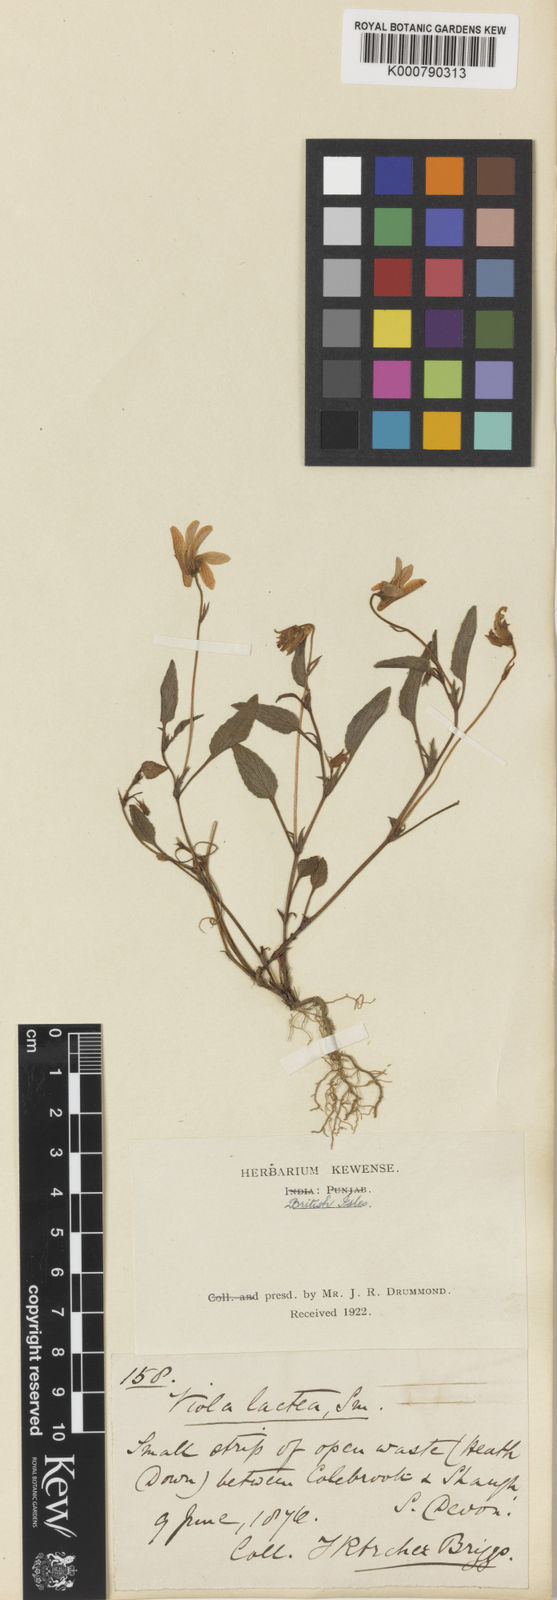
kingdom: Plantae
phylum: Tracheophyta
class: Magnoliopsida
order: Malpighiales
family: Violaceae
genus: Viola
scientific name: Viola lactea
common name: Pale dog-violet
